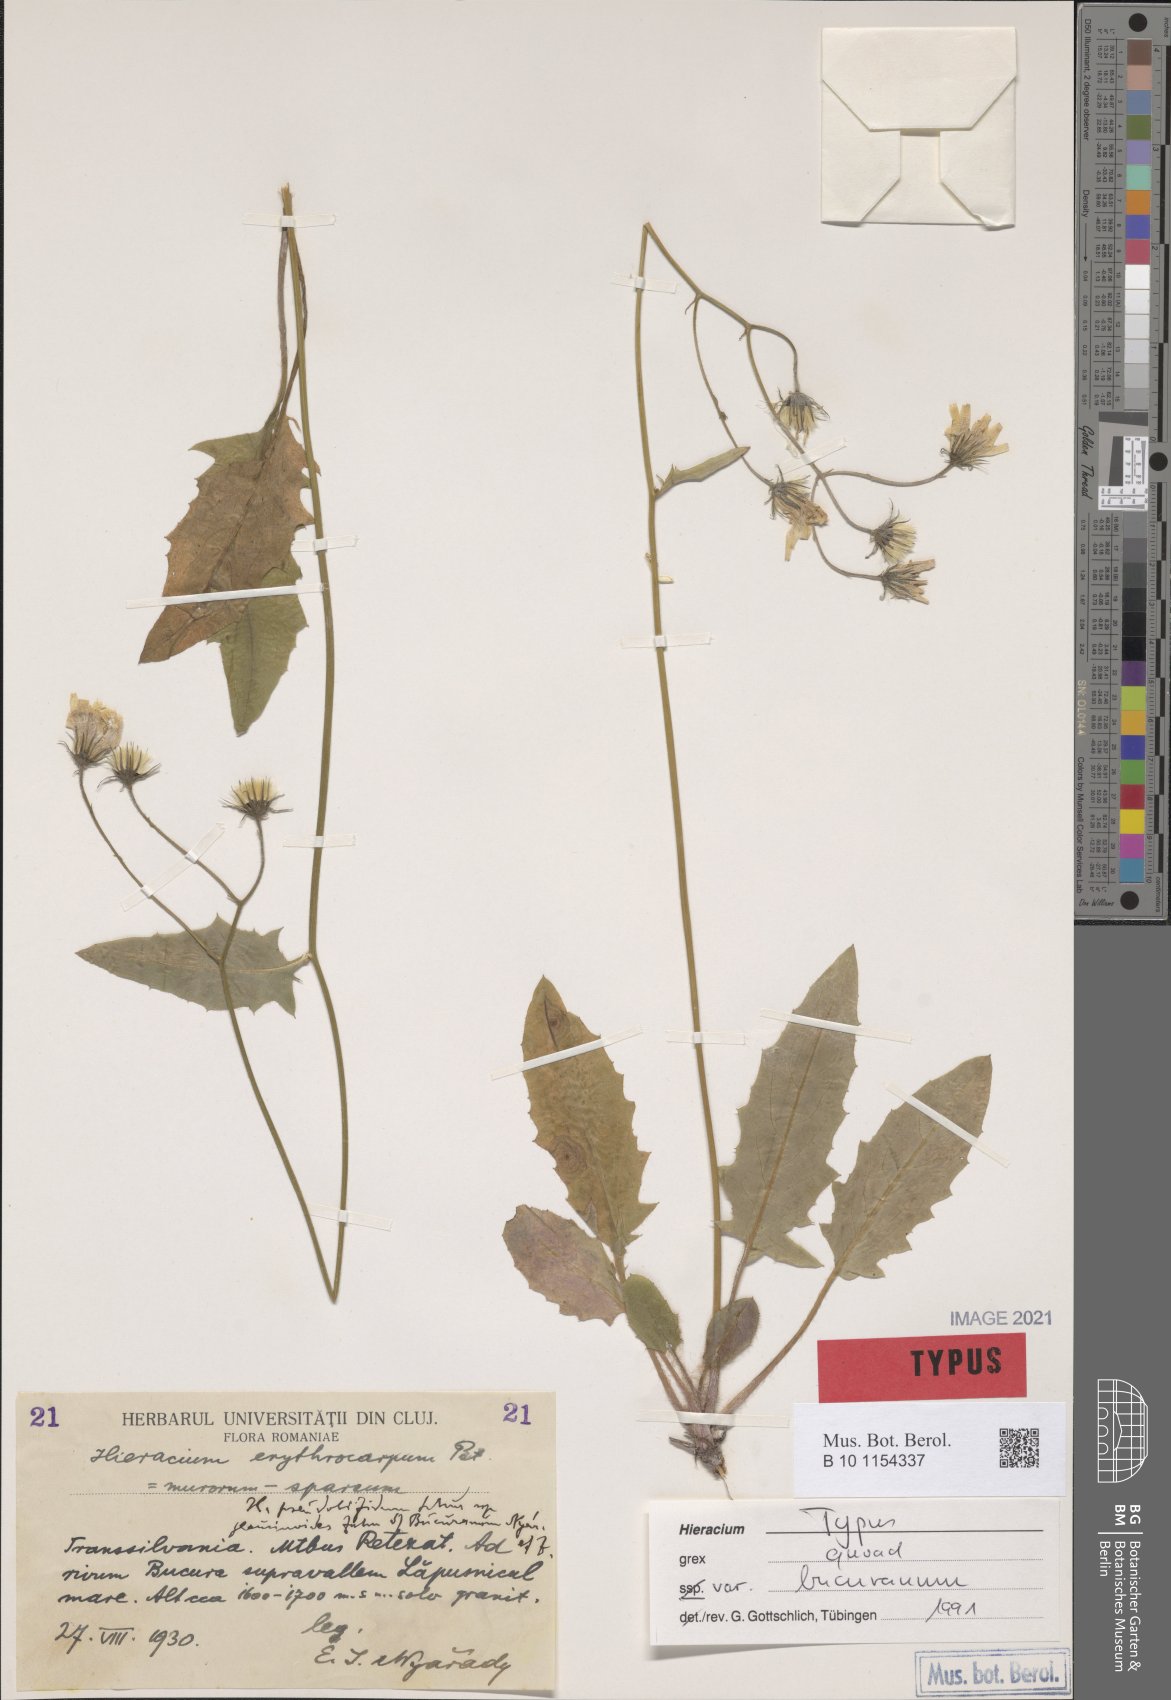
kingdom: Plantae
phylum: Tracheophyta
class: Magnoliopsida
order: Asterales
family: Asteraceae
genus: Hieracium
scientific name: Hieracium pseudobifidum
